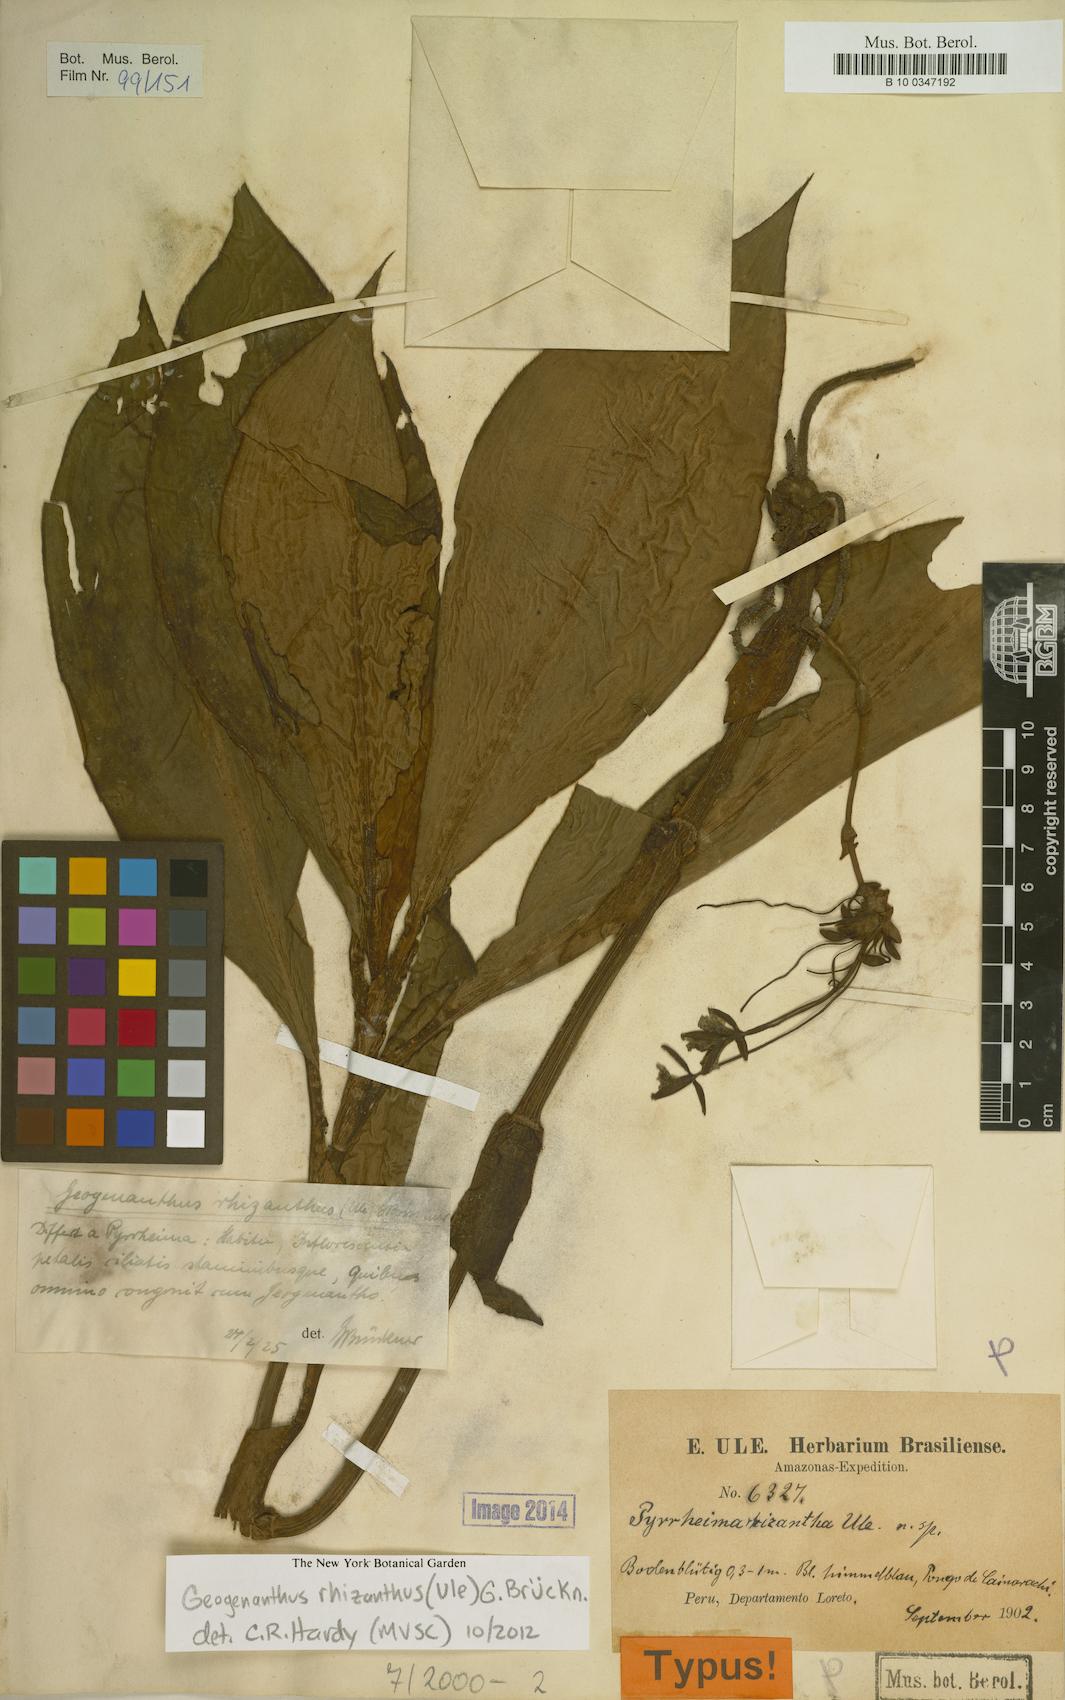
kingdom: Plantae
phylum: Tracheophyta
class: Liliopsida
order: Commelinales
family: Commelinaceae
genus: Geogenanthus
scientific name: Geogenanthus rhizanthus
